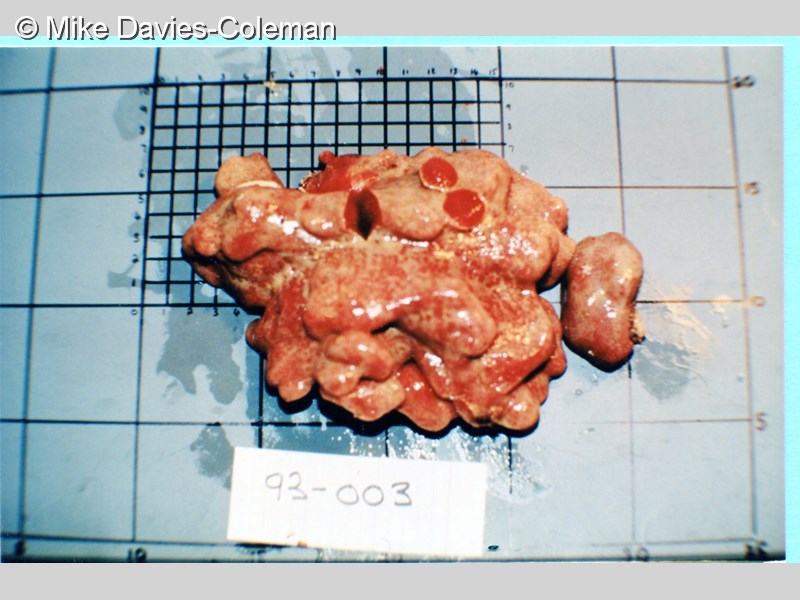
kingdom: Animalia
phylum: Chordata
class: Ascidiacea
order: Aplousobranchia
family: Pseudodistomidae
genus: Pseudodistoma
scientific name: Pseudodistoma
